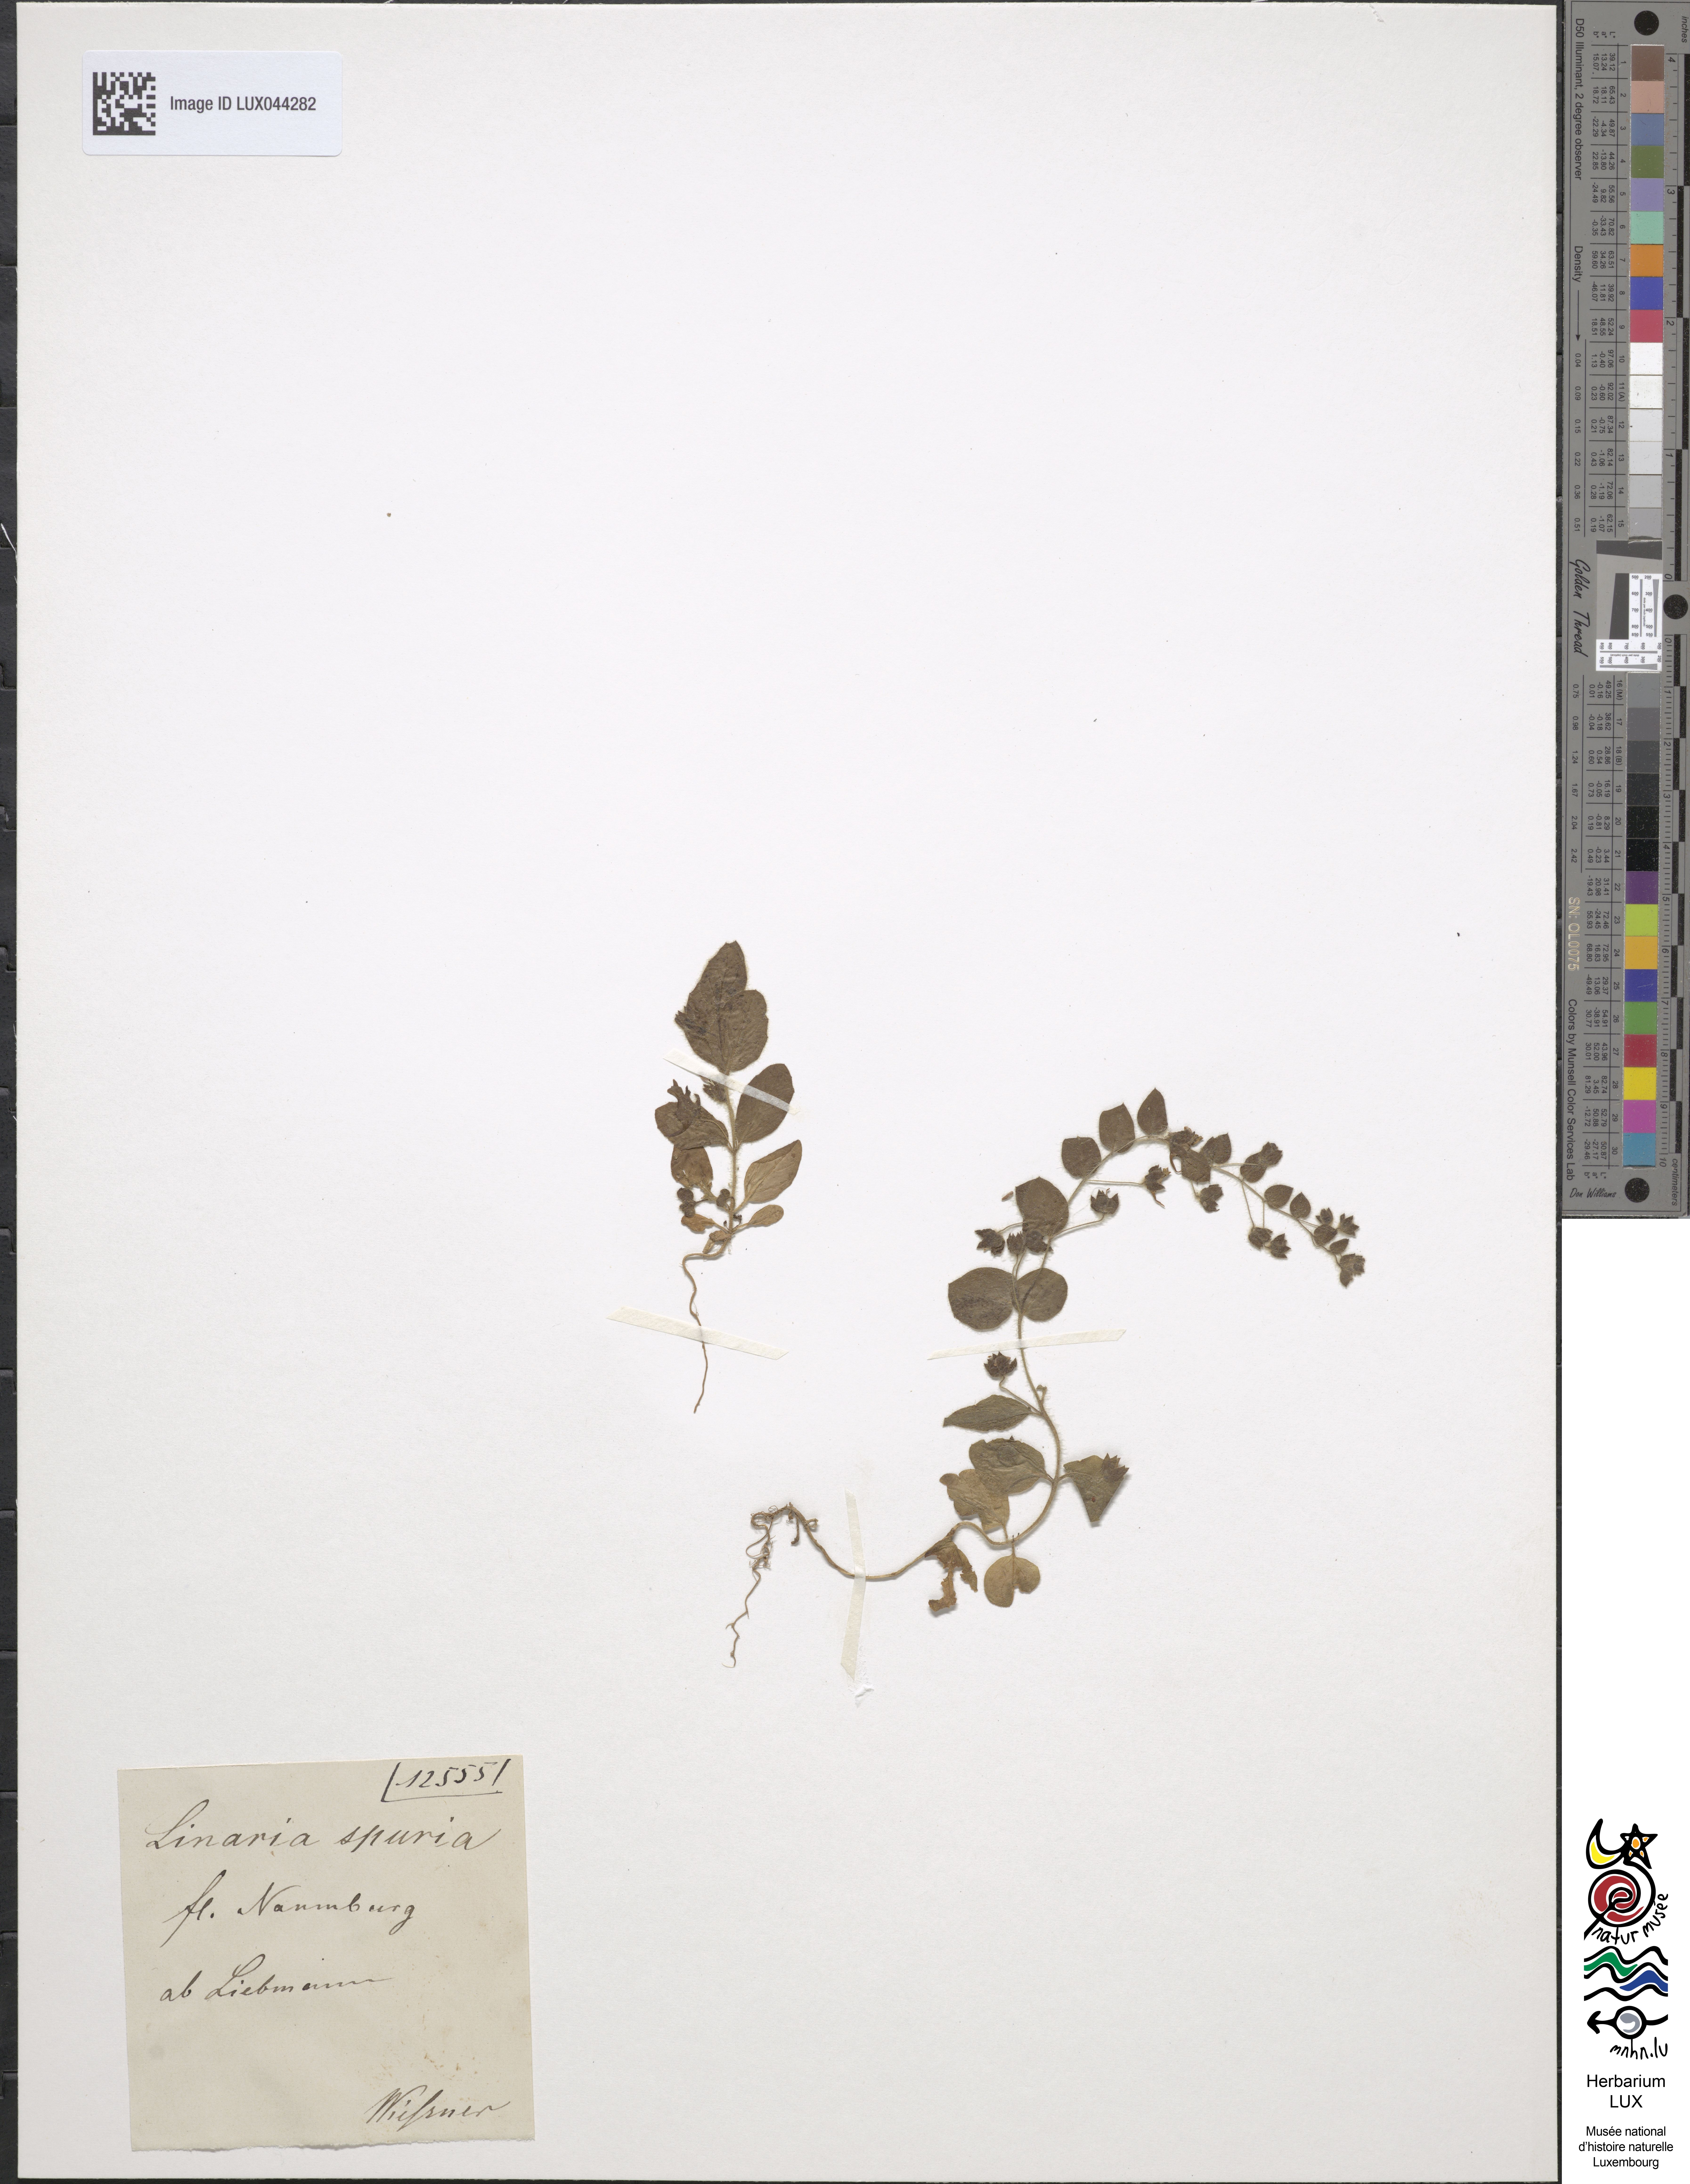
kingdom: Plantae
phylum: Tracheophyta
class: Magnoliopsida
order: Lamiales
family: Plantaginaceae
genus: Kickxia
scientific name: Kickxia spuria
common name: Round-leaved fluellen
